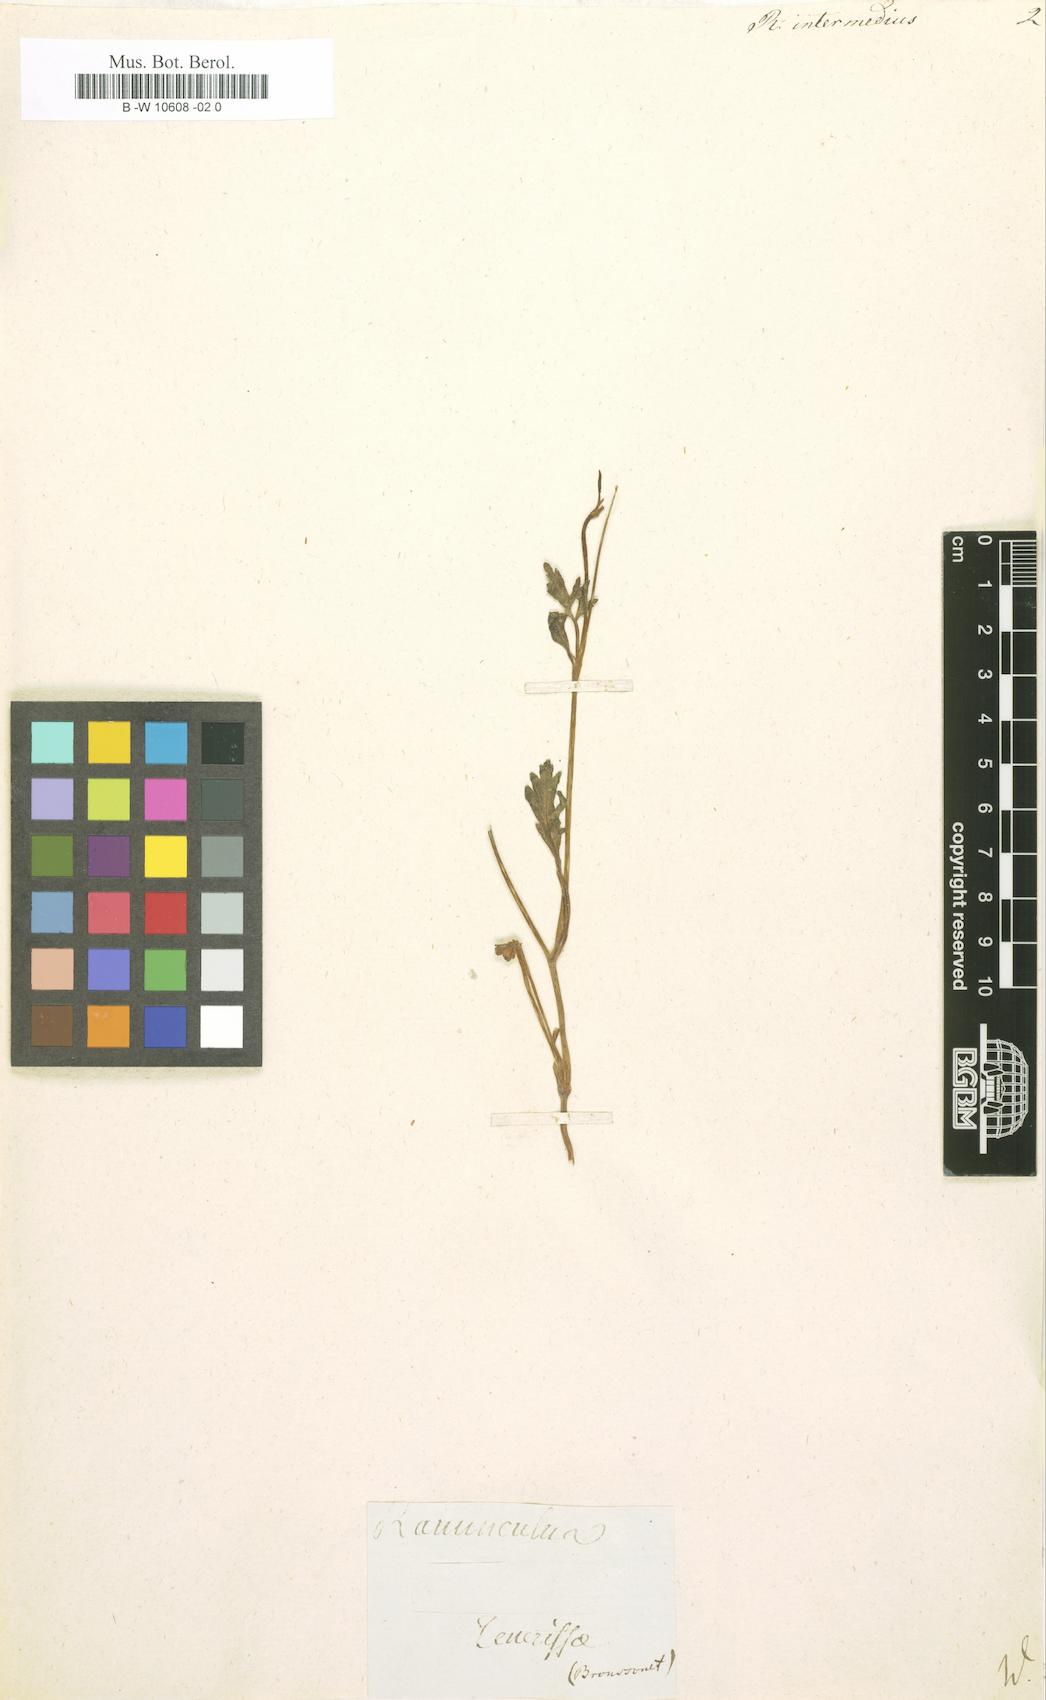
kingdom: Plantae
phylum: Tracheophyta
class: Magnoliopsida
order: Ranunculales
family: Ranunculaceae
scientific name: Ranunculaceae
